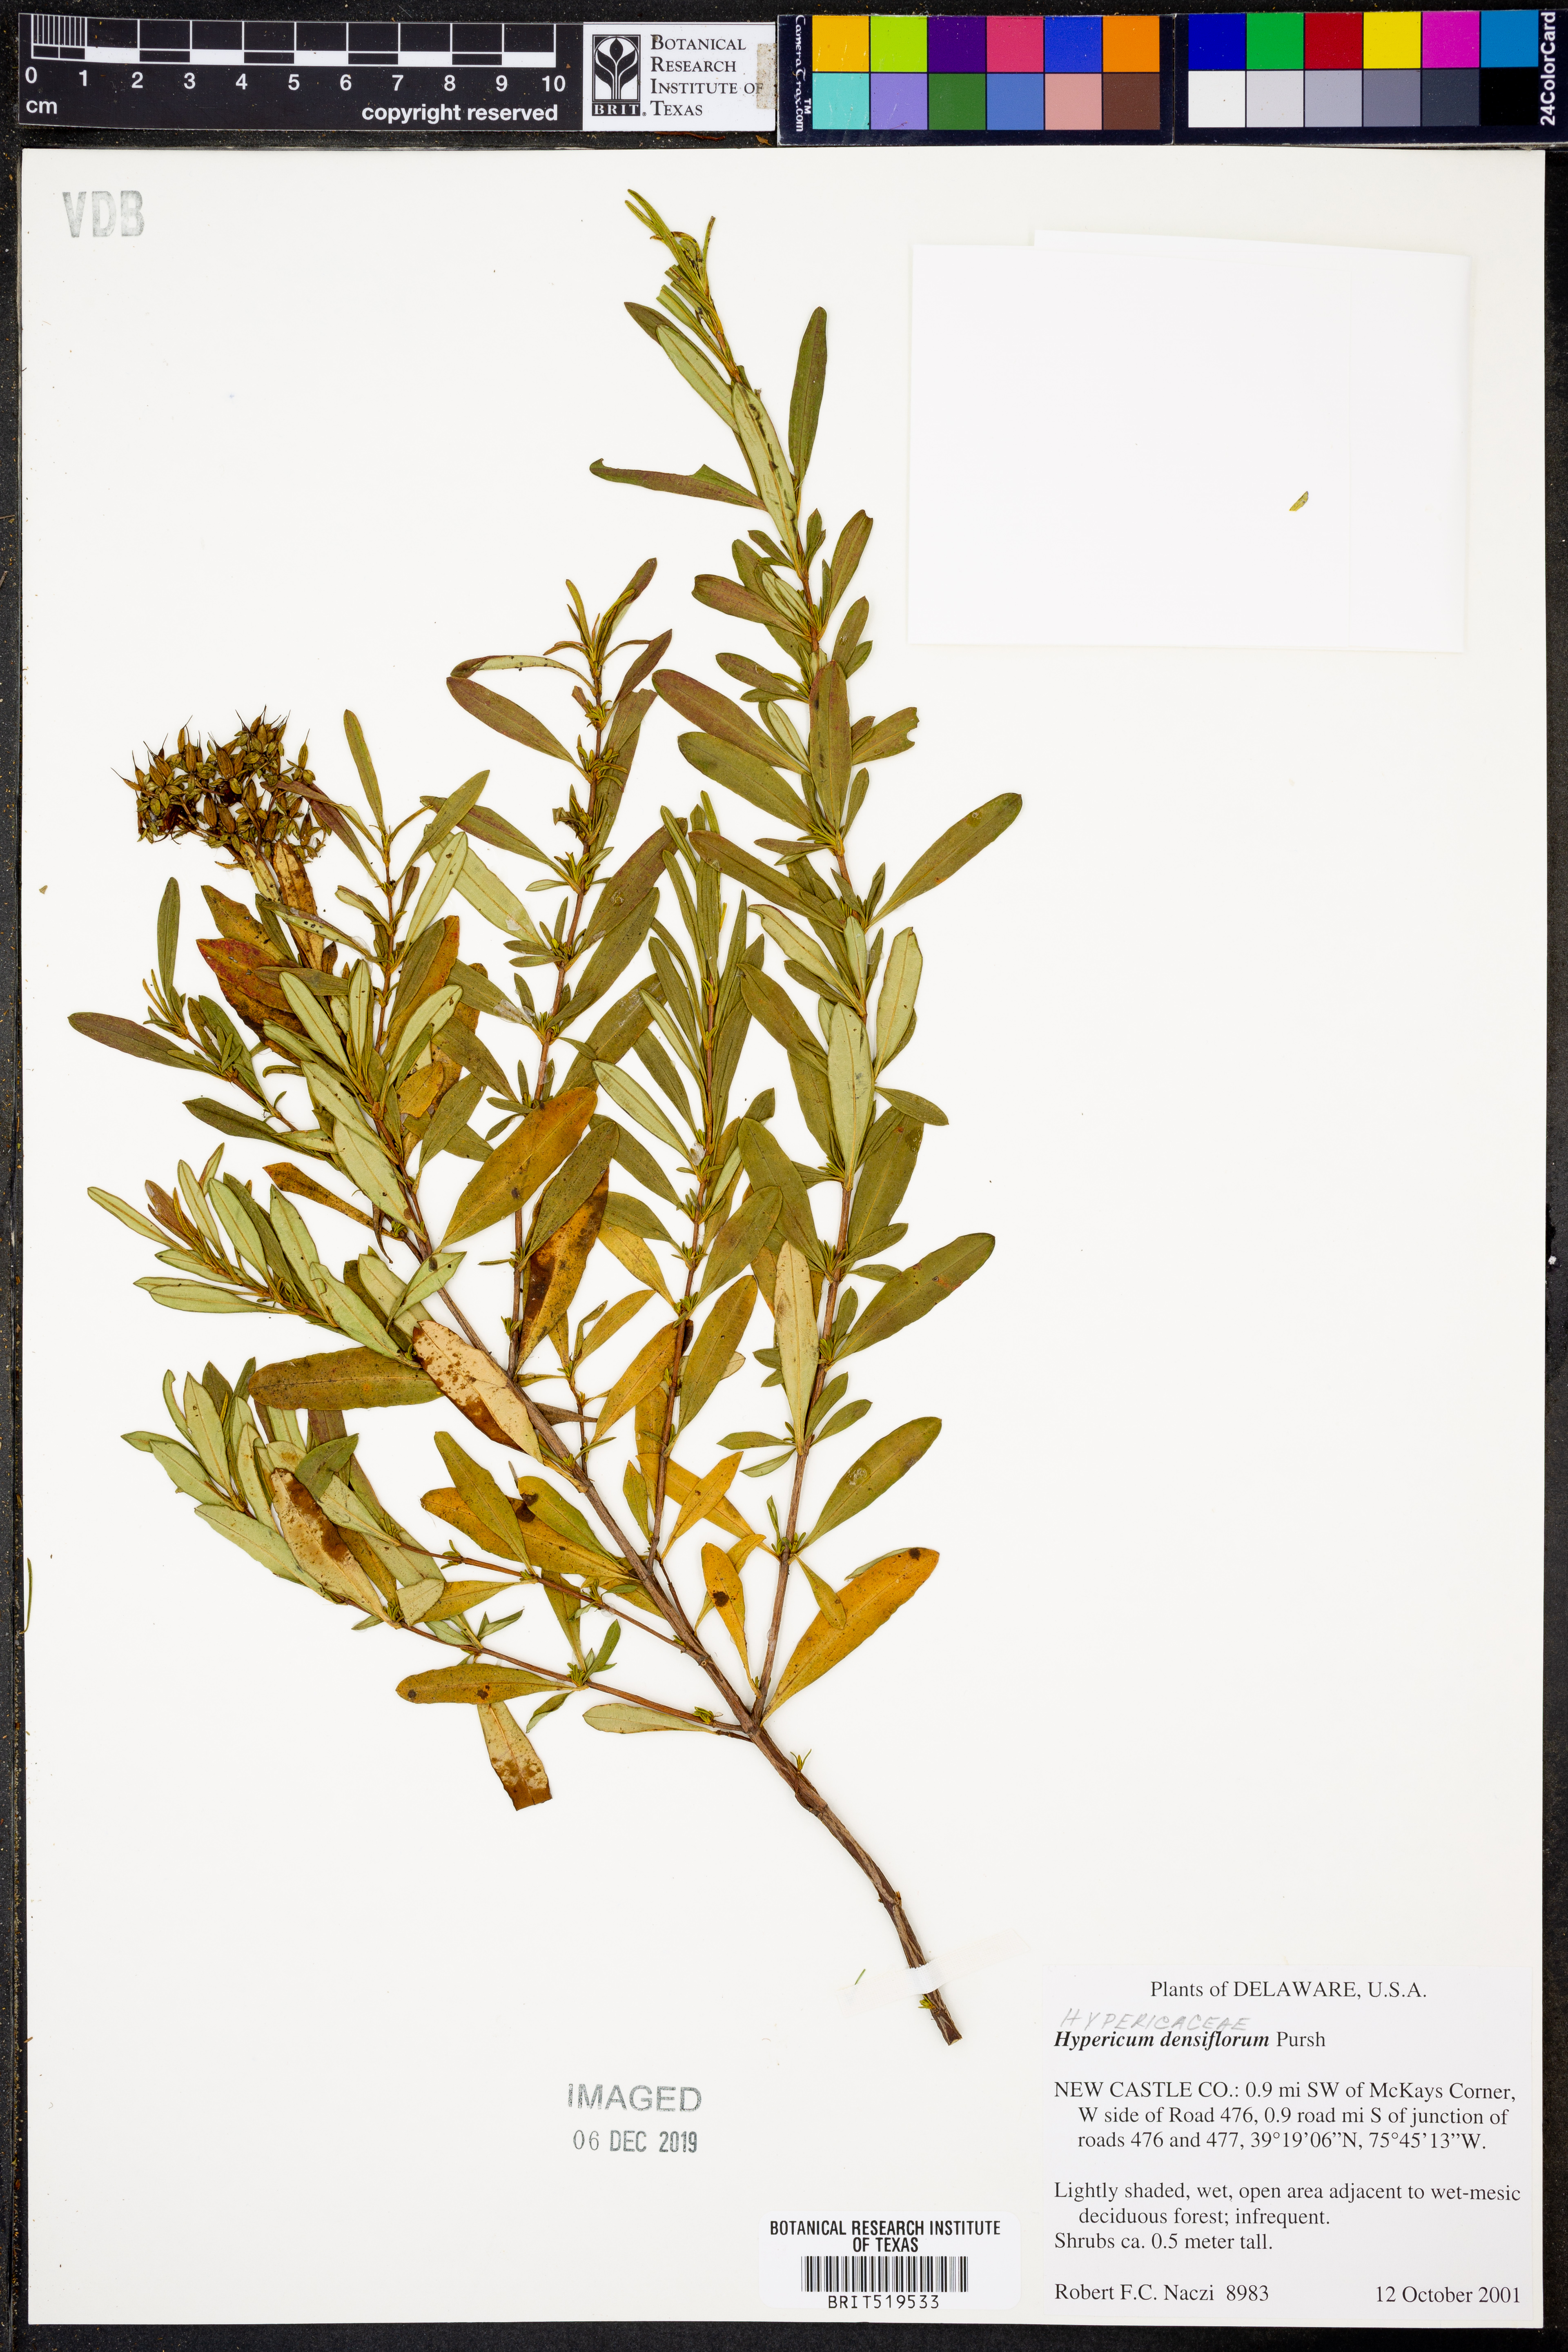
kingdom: Plantae
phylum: Tracheophyta
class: Magnoliopsida
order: Malpighiales
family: Hypericaceae
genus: Hypericum
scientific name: Hypericum densiflorum
